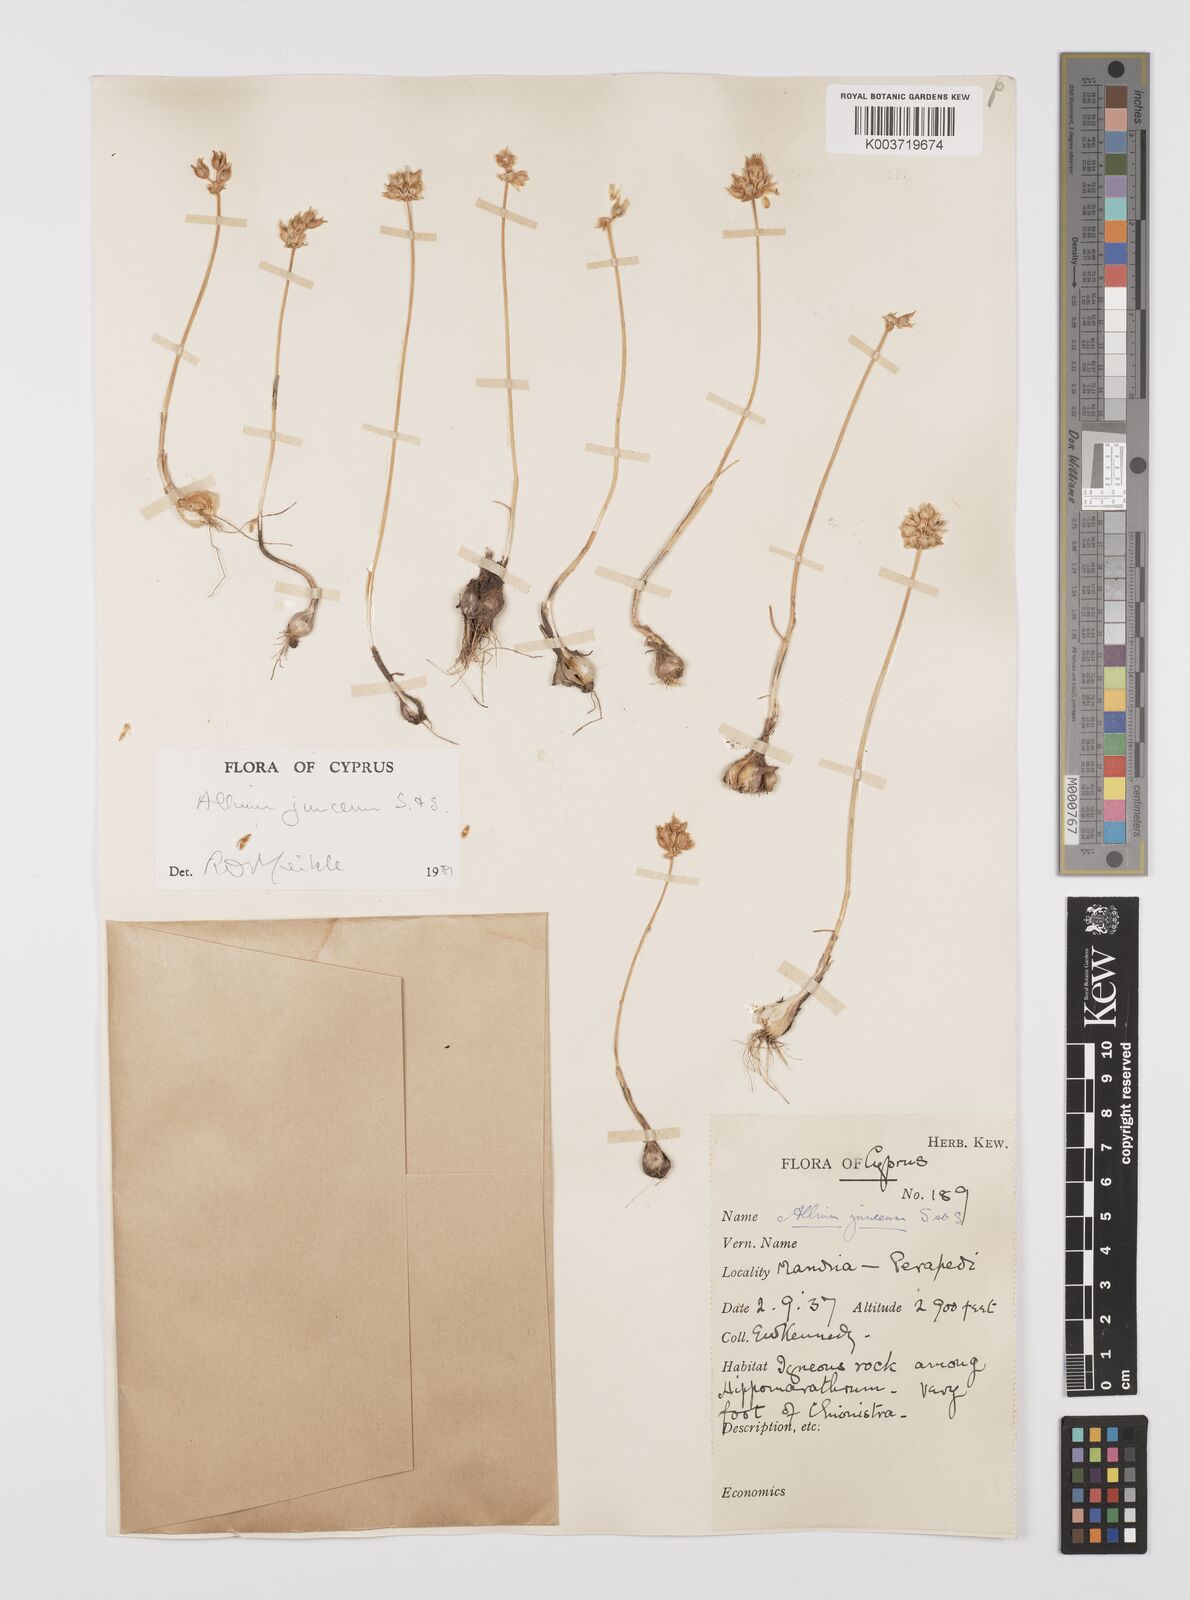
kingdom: Plantae
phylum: Tracheophyta
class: Liliopsida
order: Asparagales
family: Amaryllidaceae
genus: Allium
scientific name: Allium junceum
